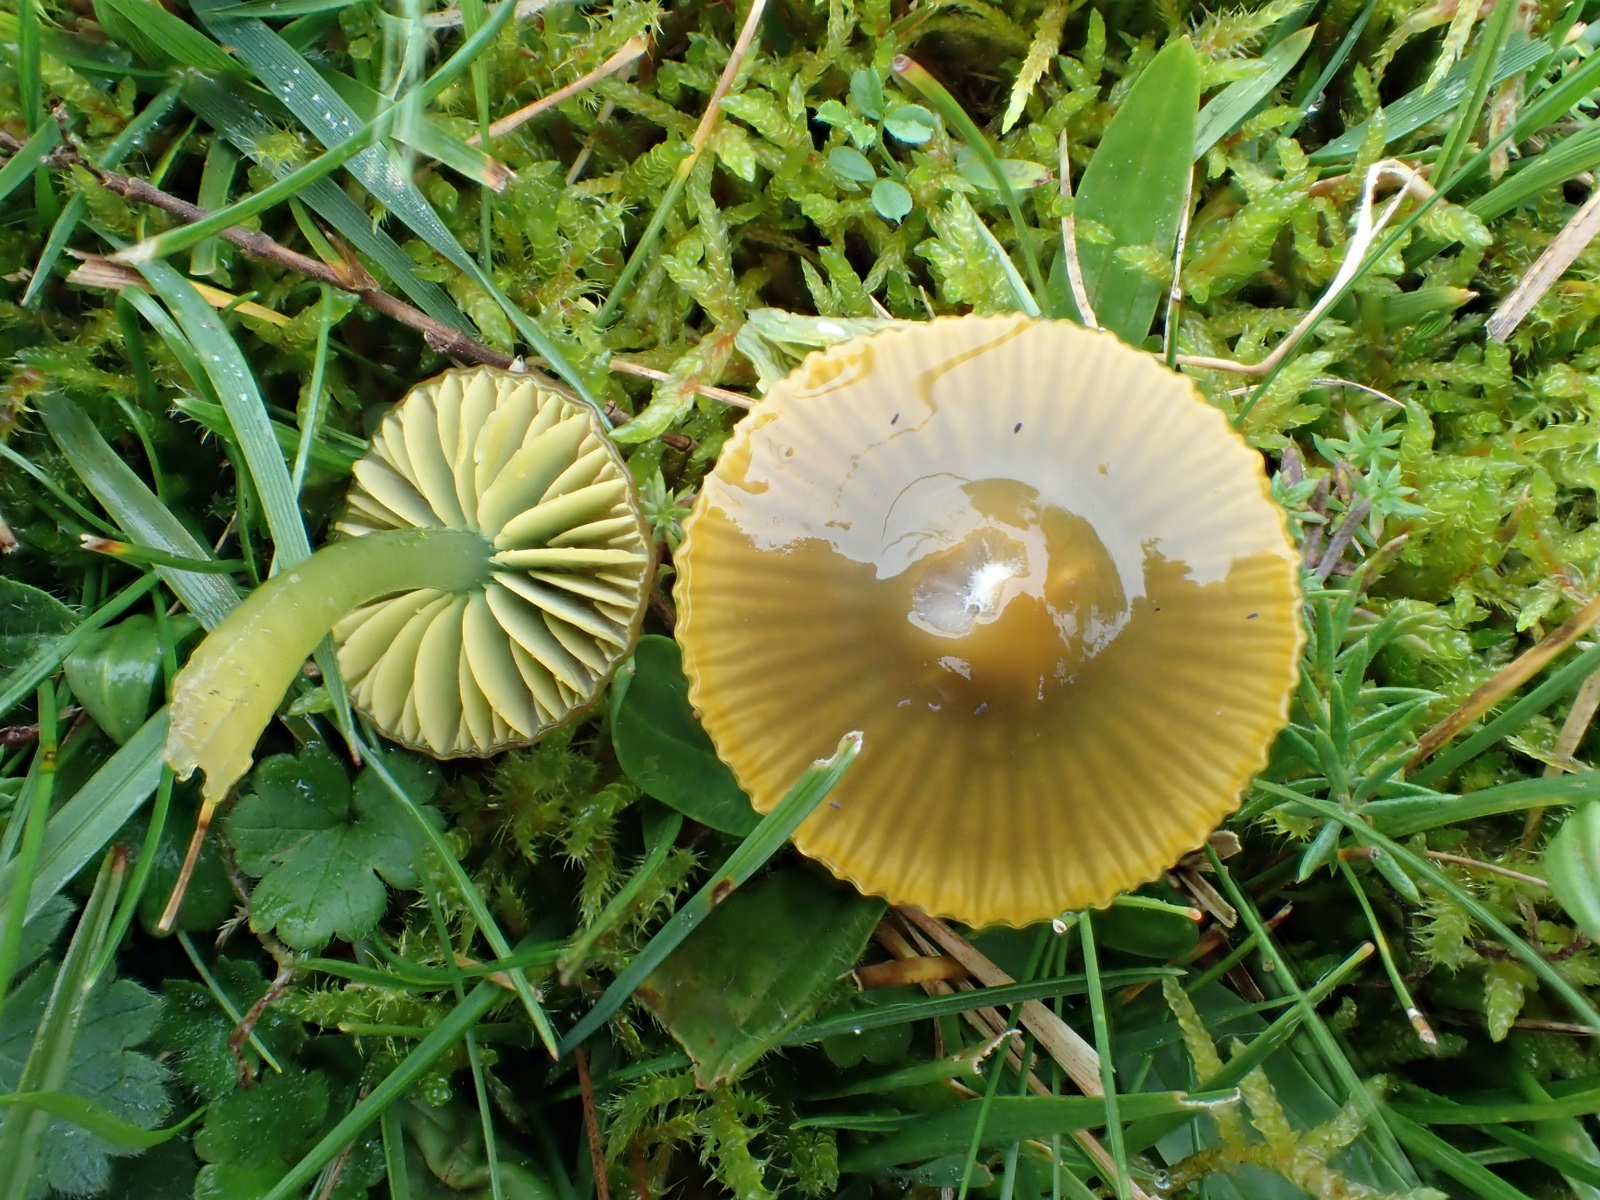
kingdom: Fungi
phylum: Basidiomycota
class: Agaricomycetes
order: Agaricales
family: Hygrophoraceae
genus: Gliophorus
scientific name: Gliophorus psittacinus
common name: papegøje-vokshat
